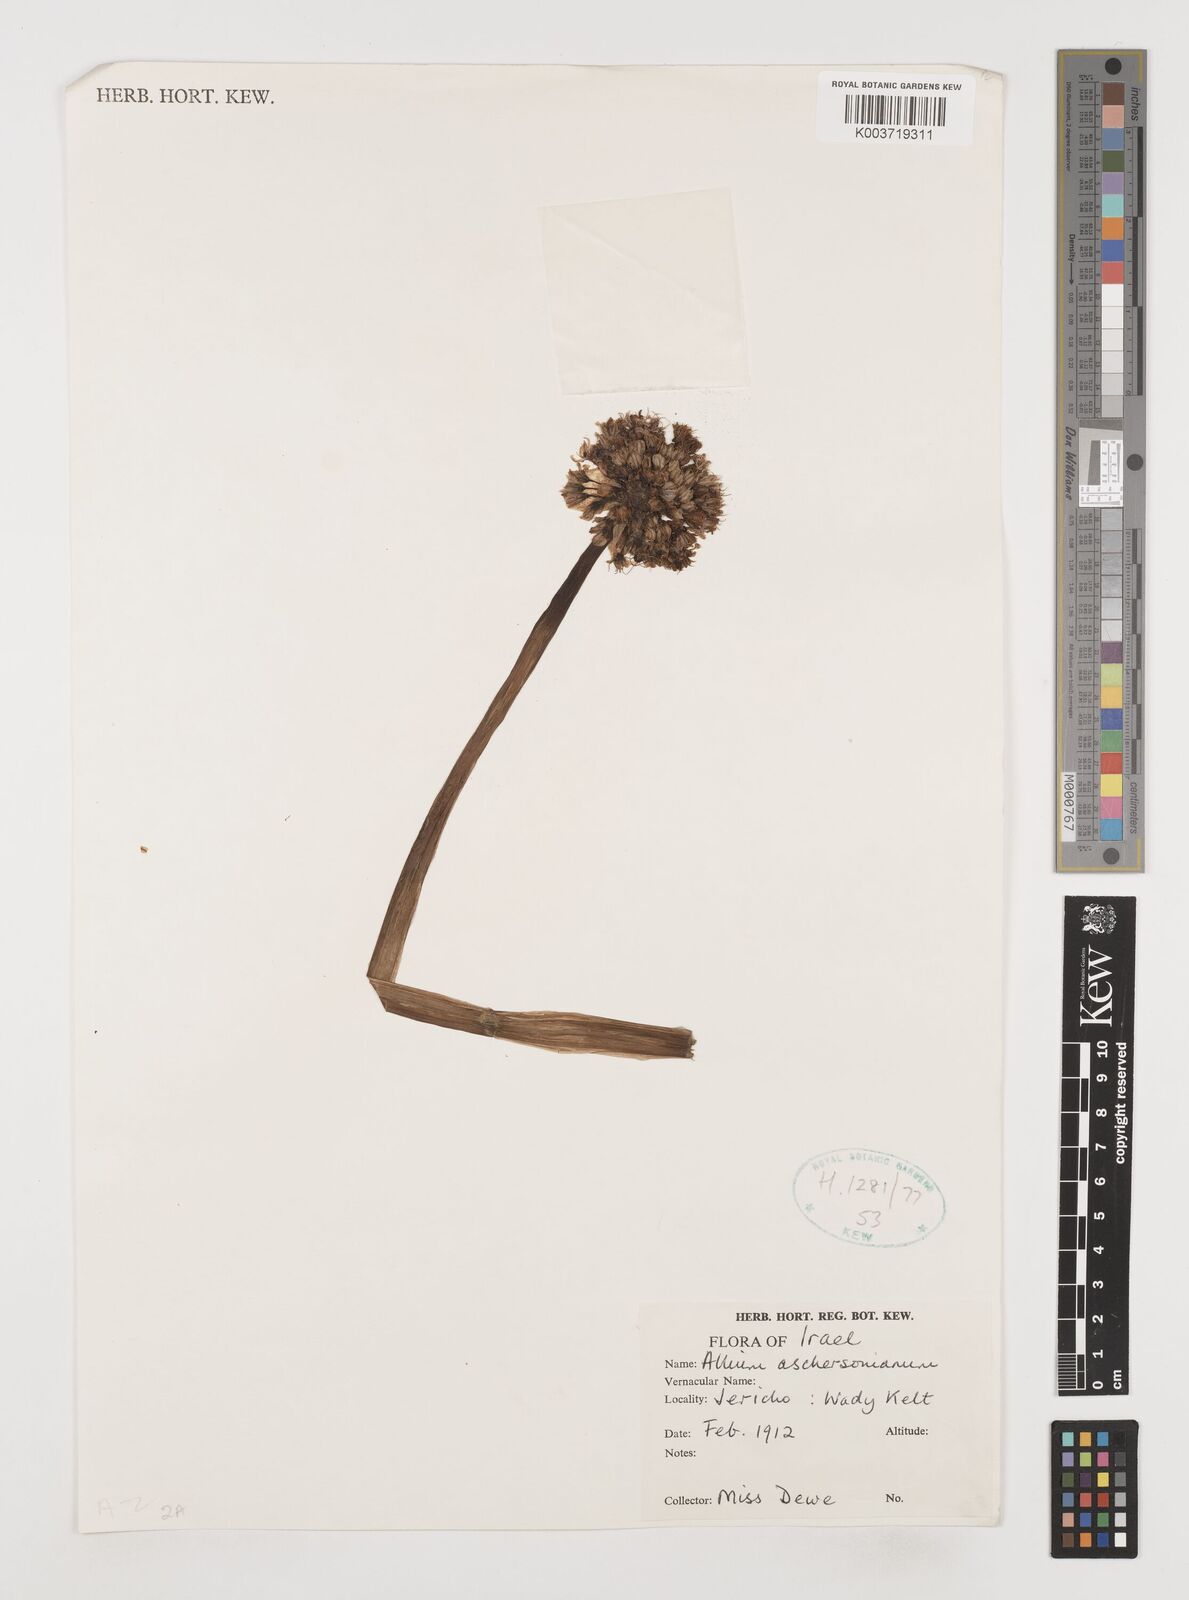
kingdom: Plantae
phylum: Tracheophyta
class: Liliopsida
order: Asparagales
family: Amaryllidaceae
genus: Allium
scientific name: Allium aschersonianum
